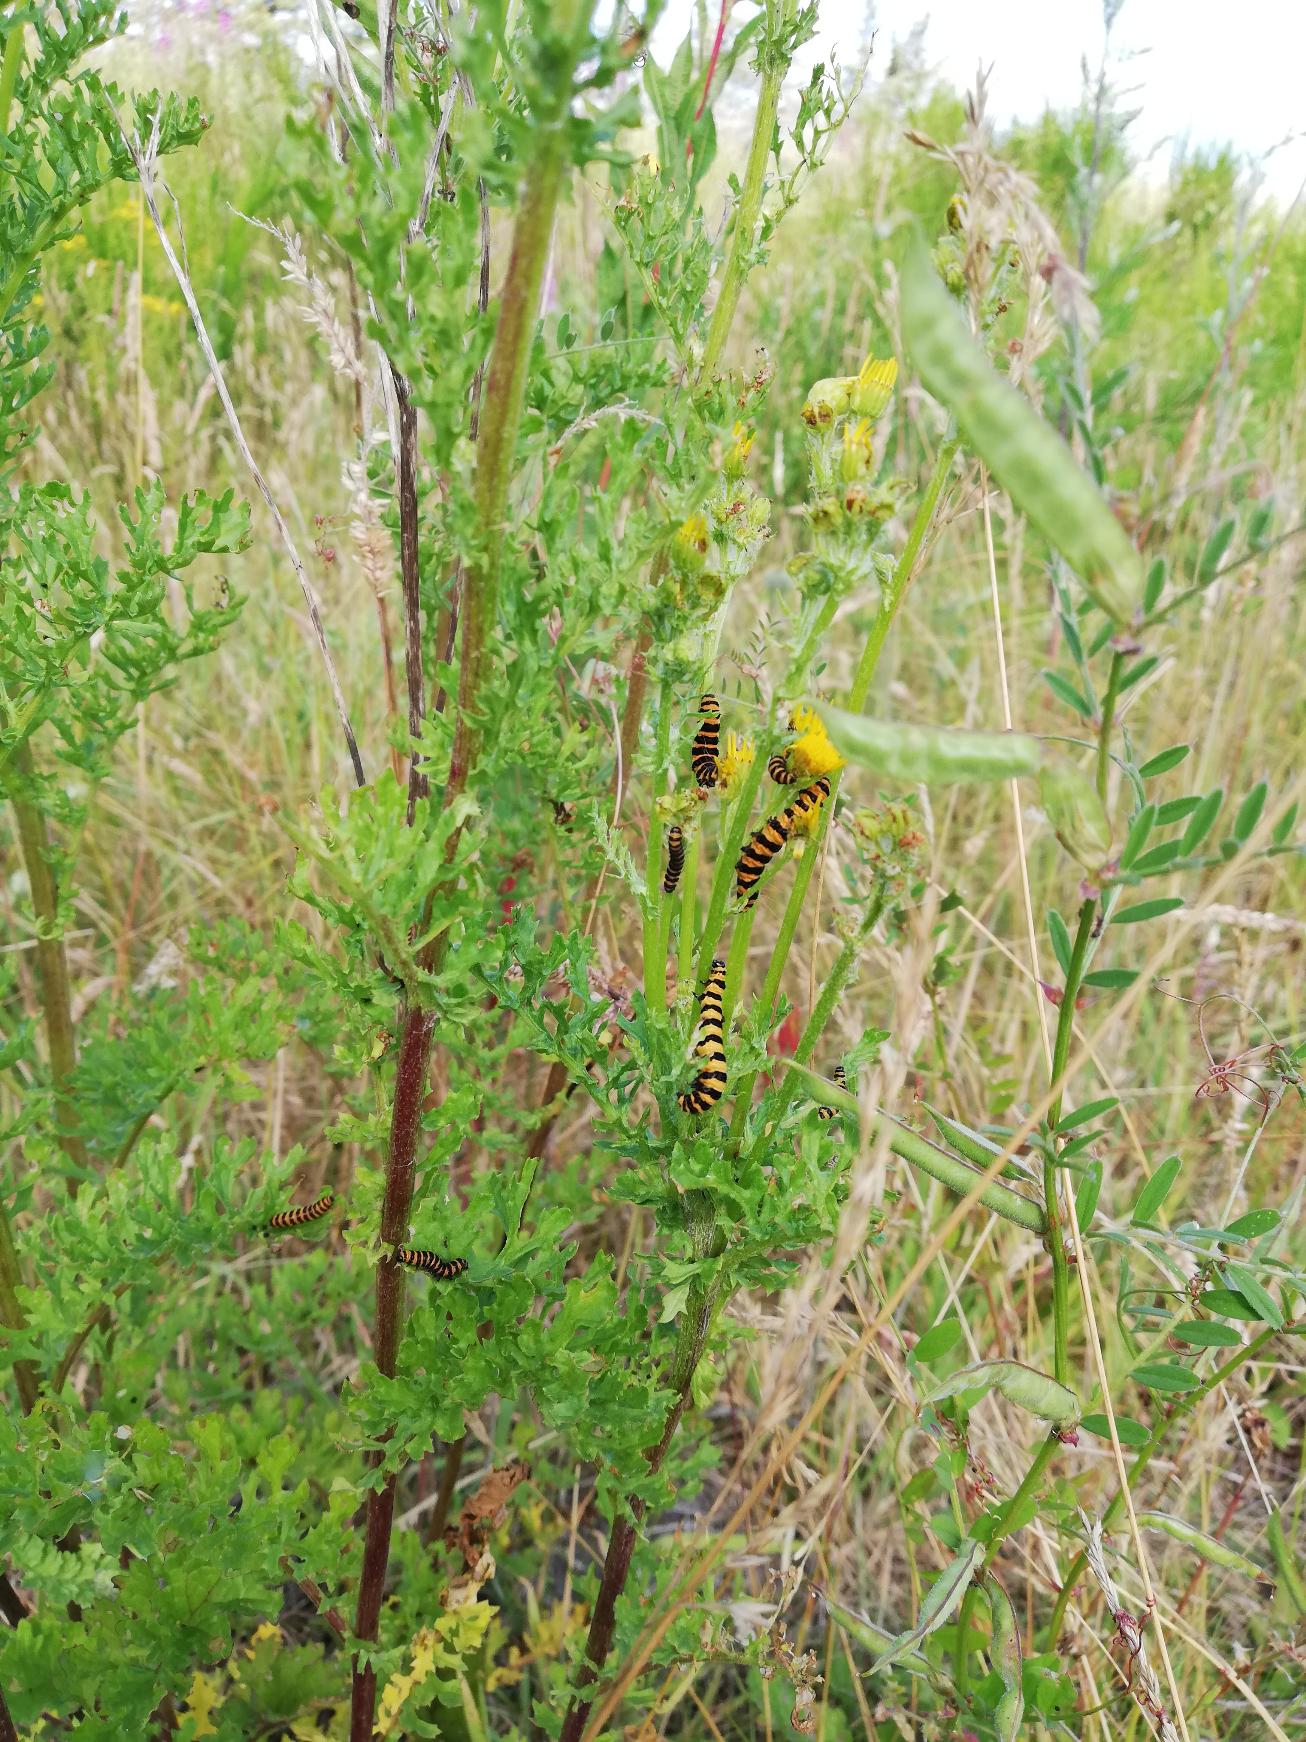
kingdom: Animalia
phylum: Arthropoda
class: Insecta
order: Lepidoptera
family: Erebidae
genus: Tyria
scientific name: Tyria jacobaeae
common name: Blodplet
